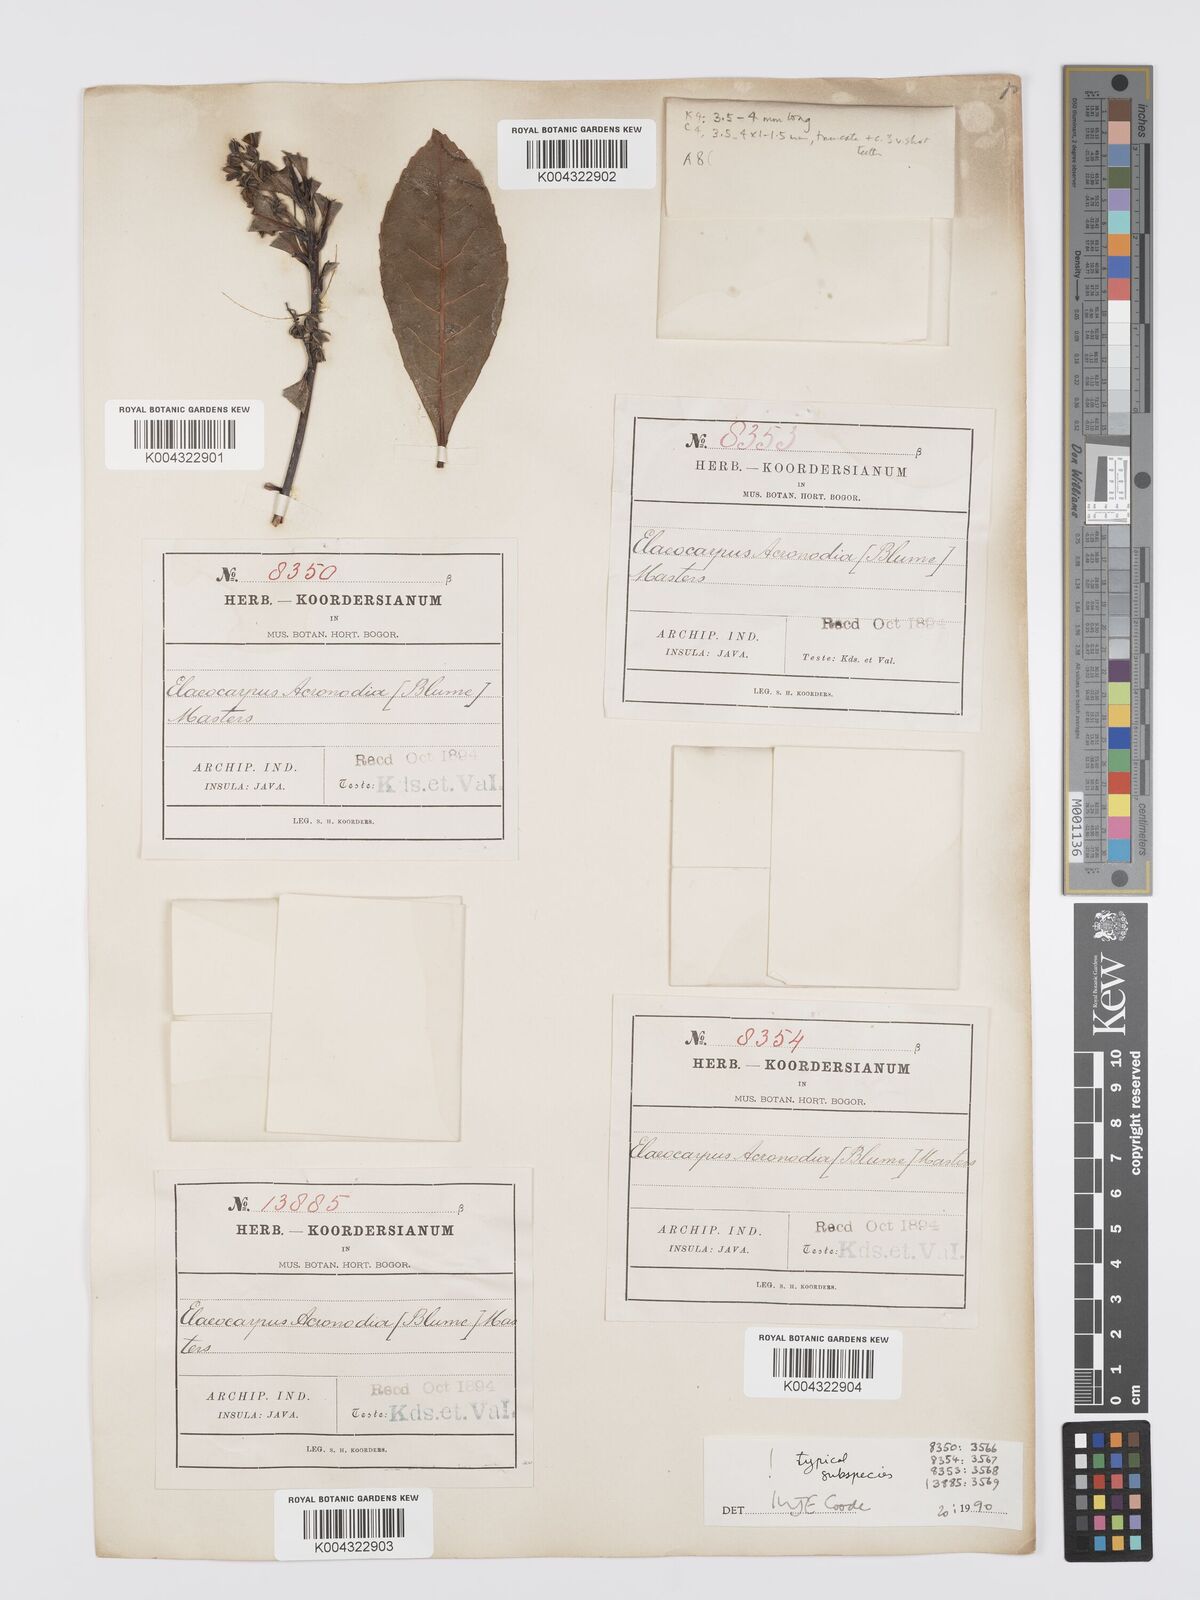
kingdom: Plantae
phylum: Tracheophyta
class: Magnoliopsida
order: Oxalidales
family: Elaeocarpaceae
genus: Elaeocarpus
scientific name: Elaeocarpus acronodia
